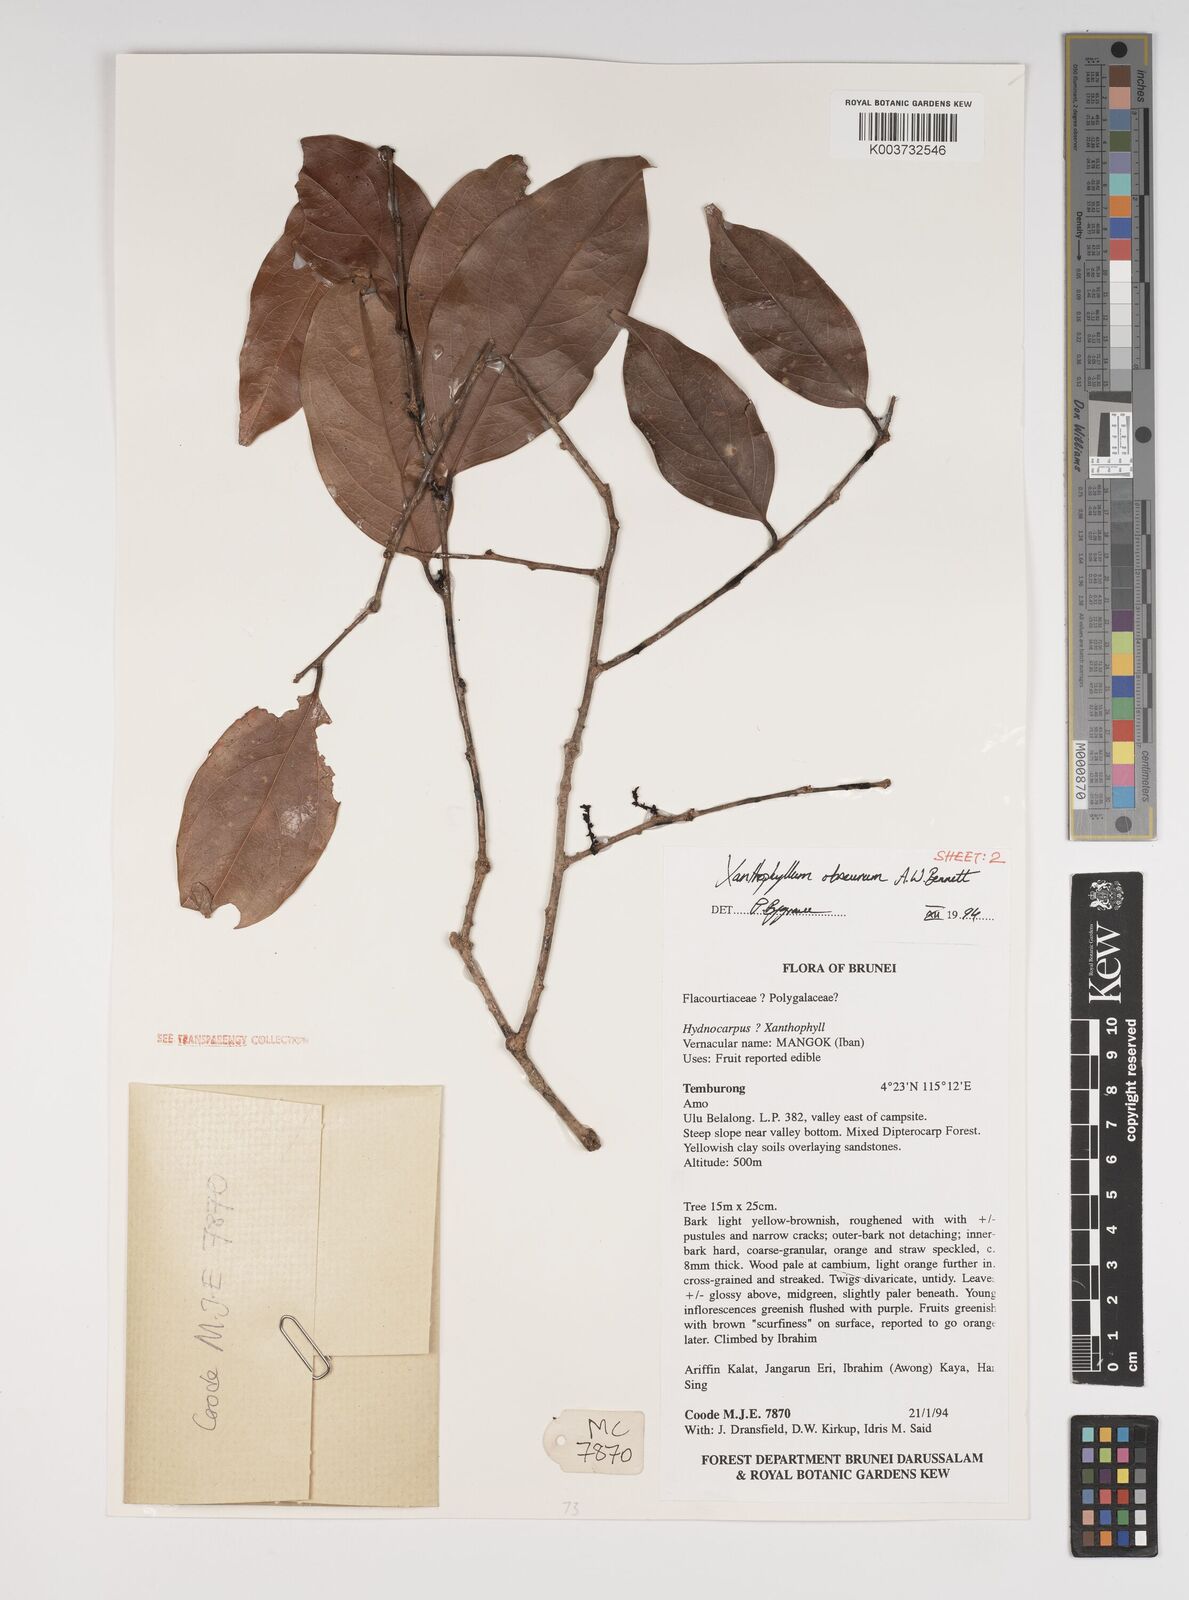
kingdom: Plantae
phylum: Tracheophyta
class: Magnoliopsida
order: Fabales
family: Polygalaceae
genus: Xanthophyllum
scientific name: Xanthophyllum obscurum
